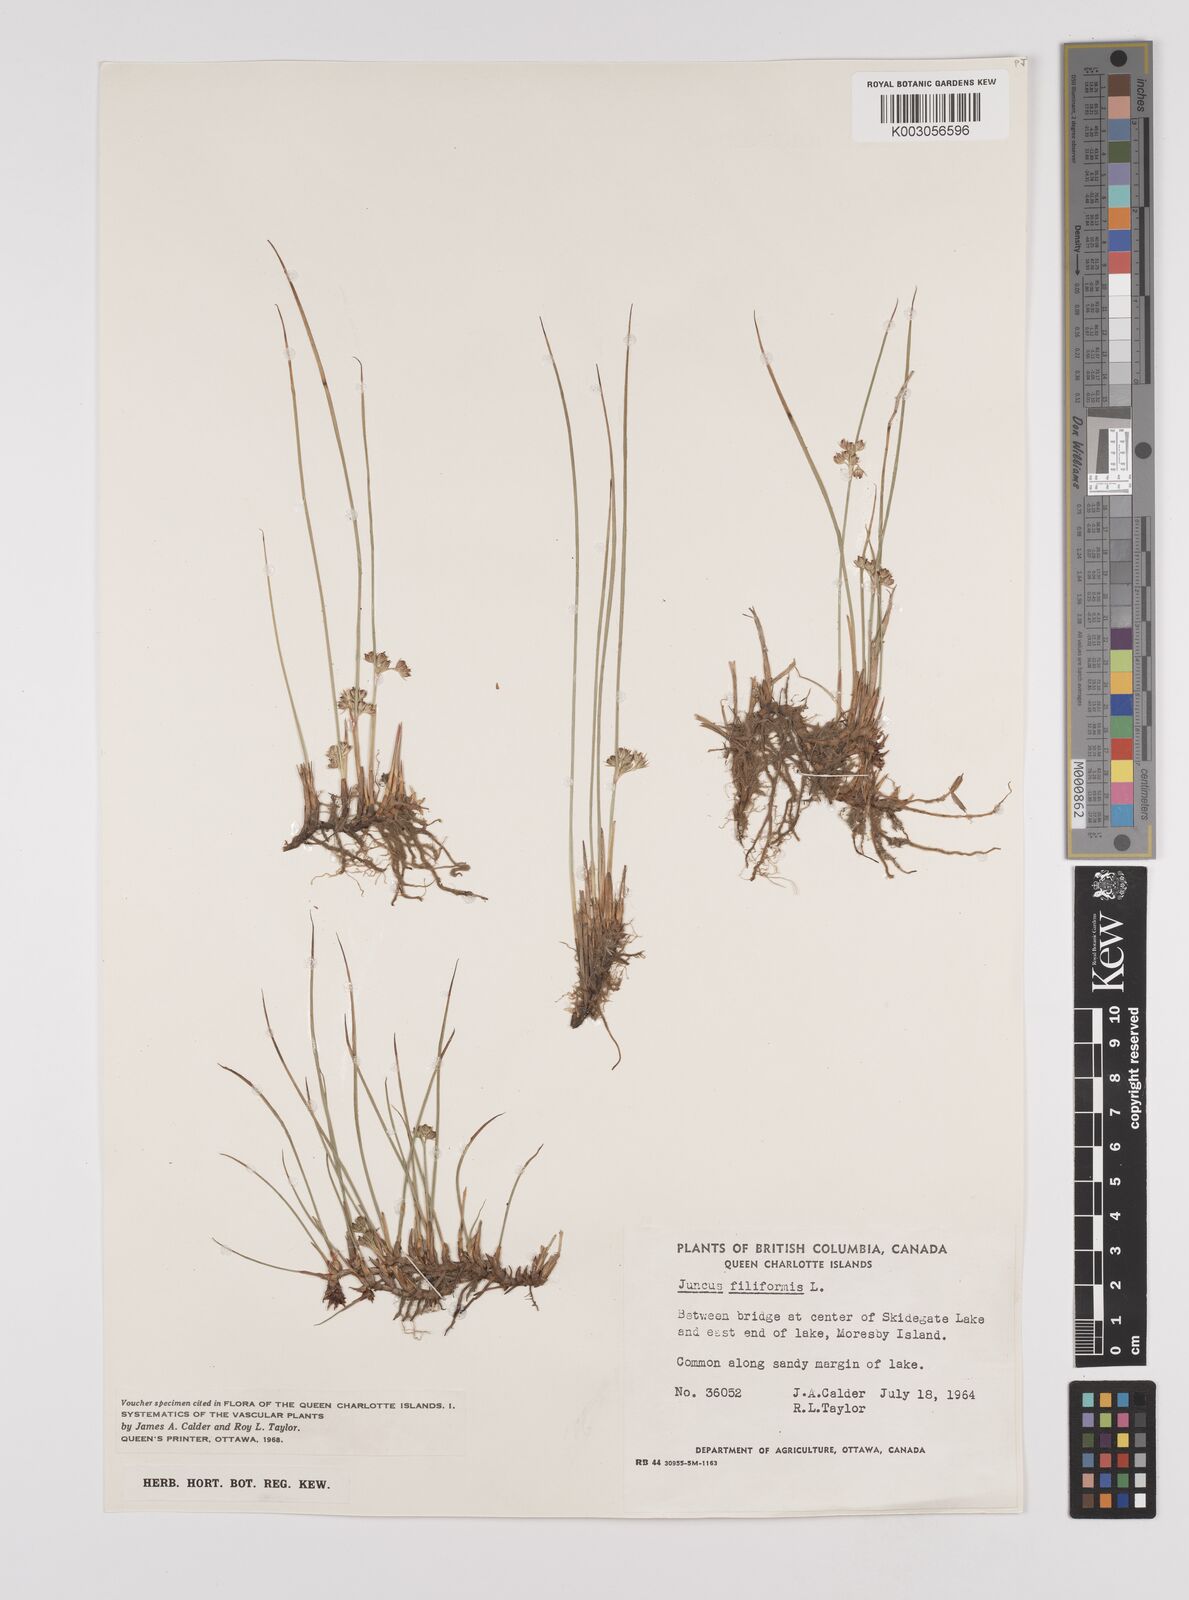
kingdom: Plantae
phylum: Tracheophyta
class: Liliopsida
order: Poales
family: Juncaceae
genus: Juncus
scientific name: Juncus filiformis
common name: Thread rush
